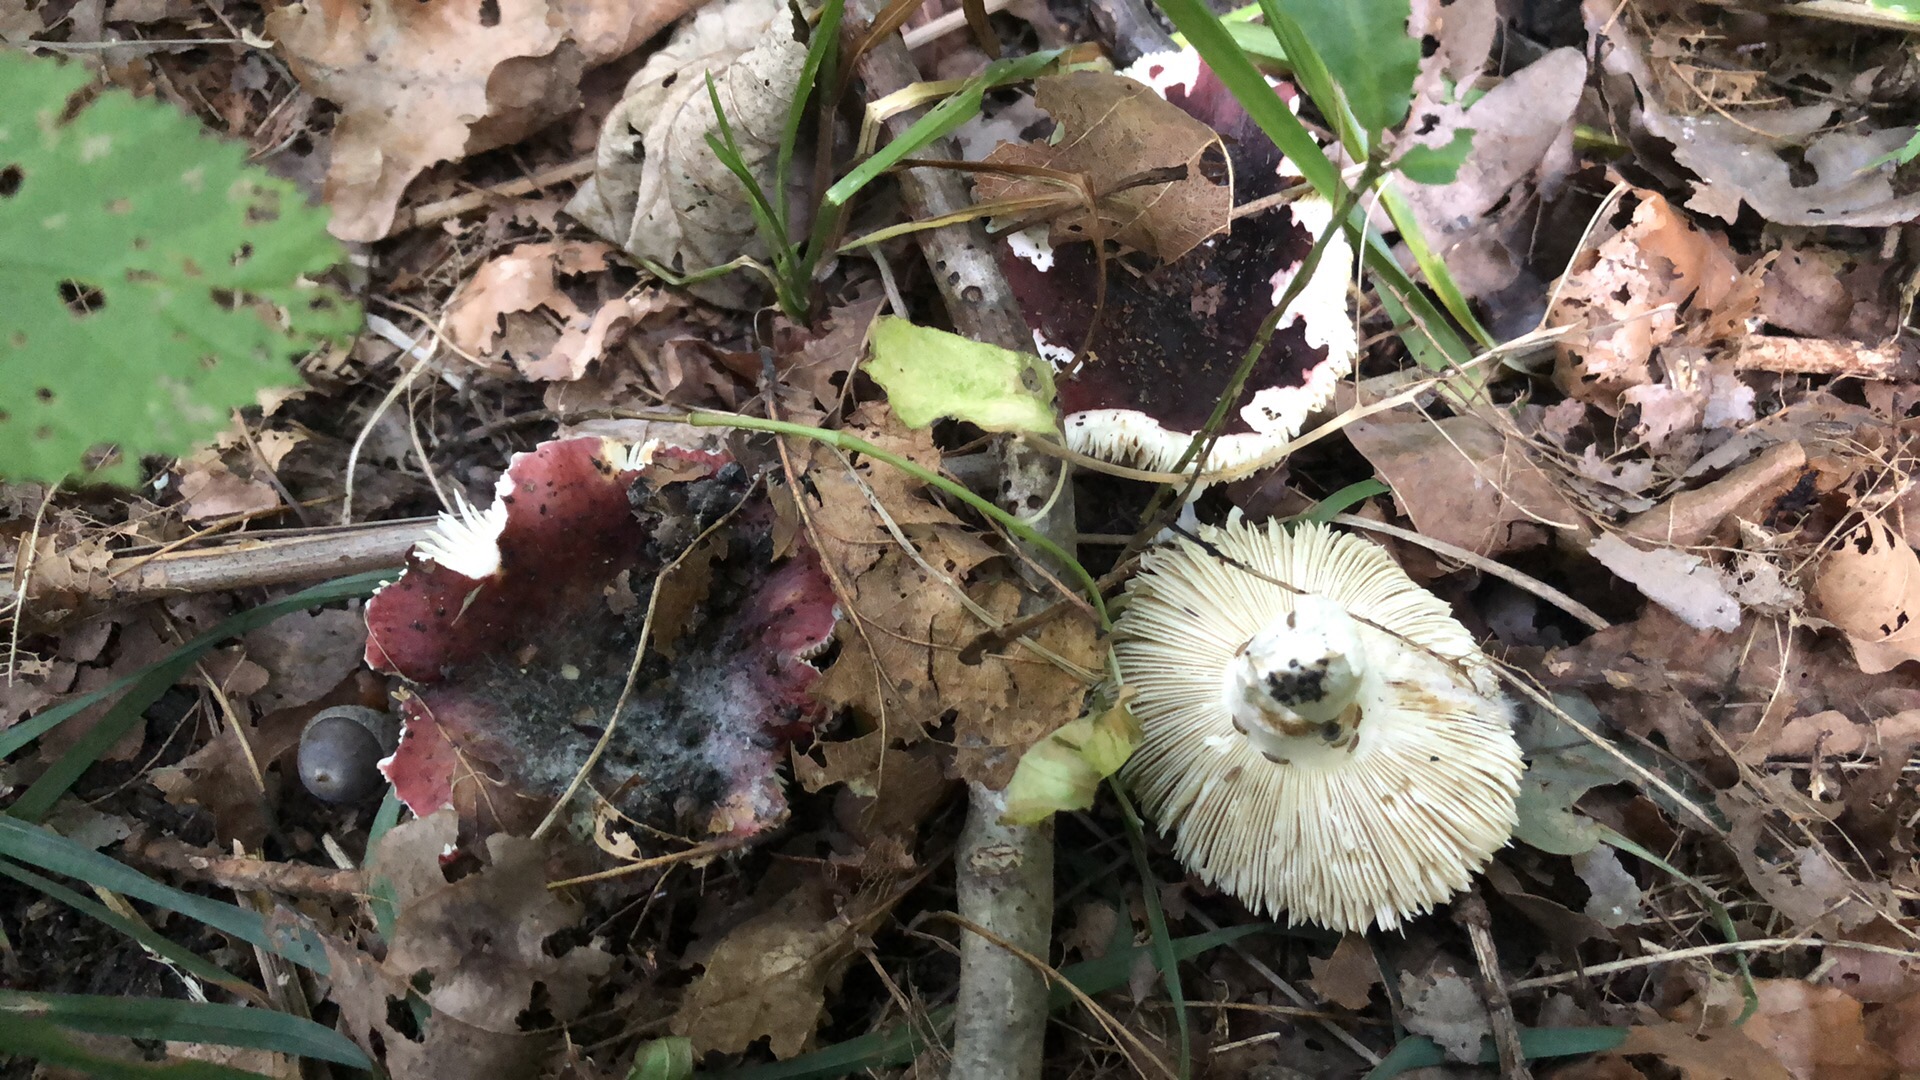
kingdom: Fungi
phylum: Basidiomycota
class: Agaricomycetes
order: Russulales
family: Russulaceae
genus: Russula
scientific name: Russula atropurpurea
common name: purpurbroget skørhat
